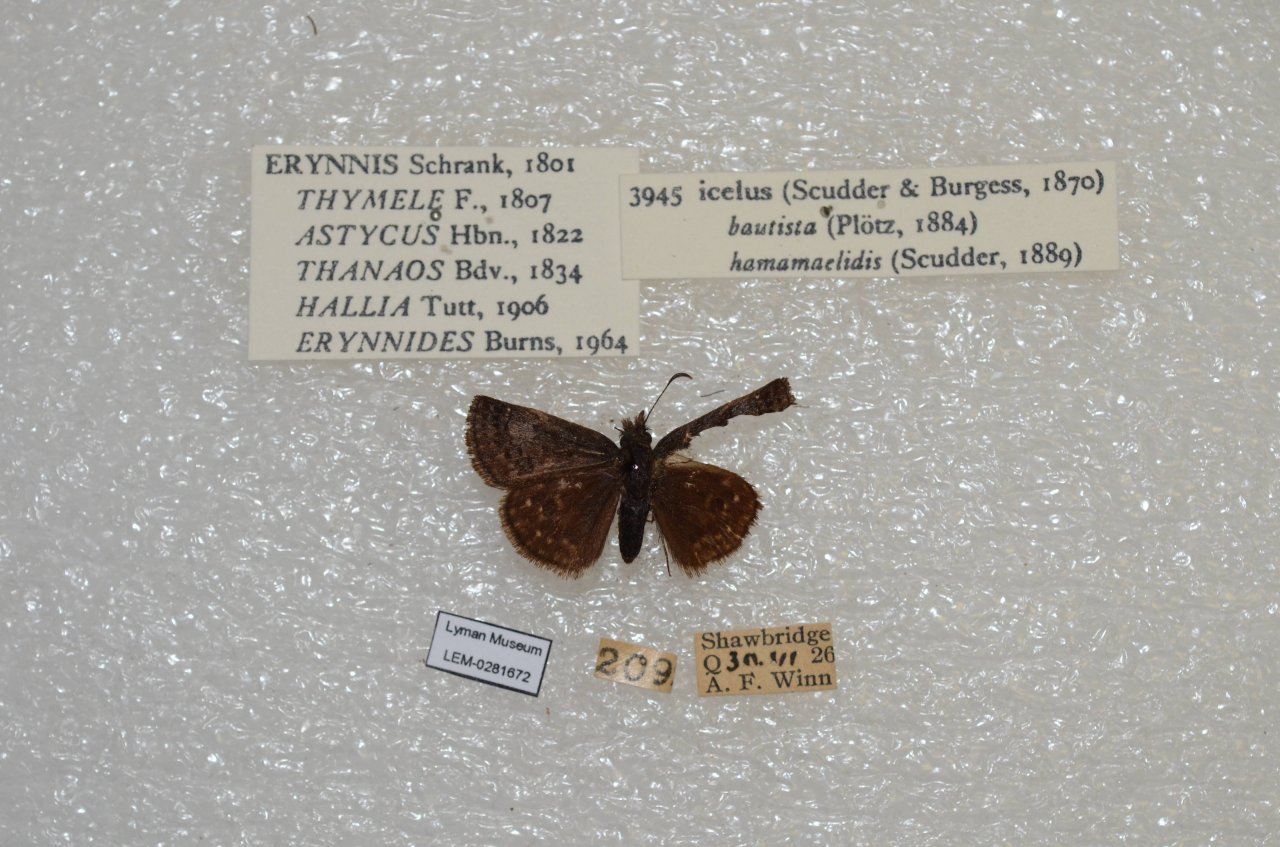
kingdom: Animalia
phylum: Arthropoda
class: Insecta
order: Lepidoptera
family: Hesperiidae
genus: Erynnis
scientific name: Erynnis icelus
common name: Dreamy Duskywing
